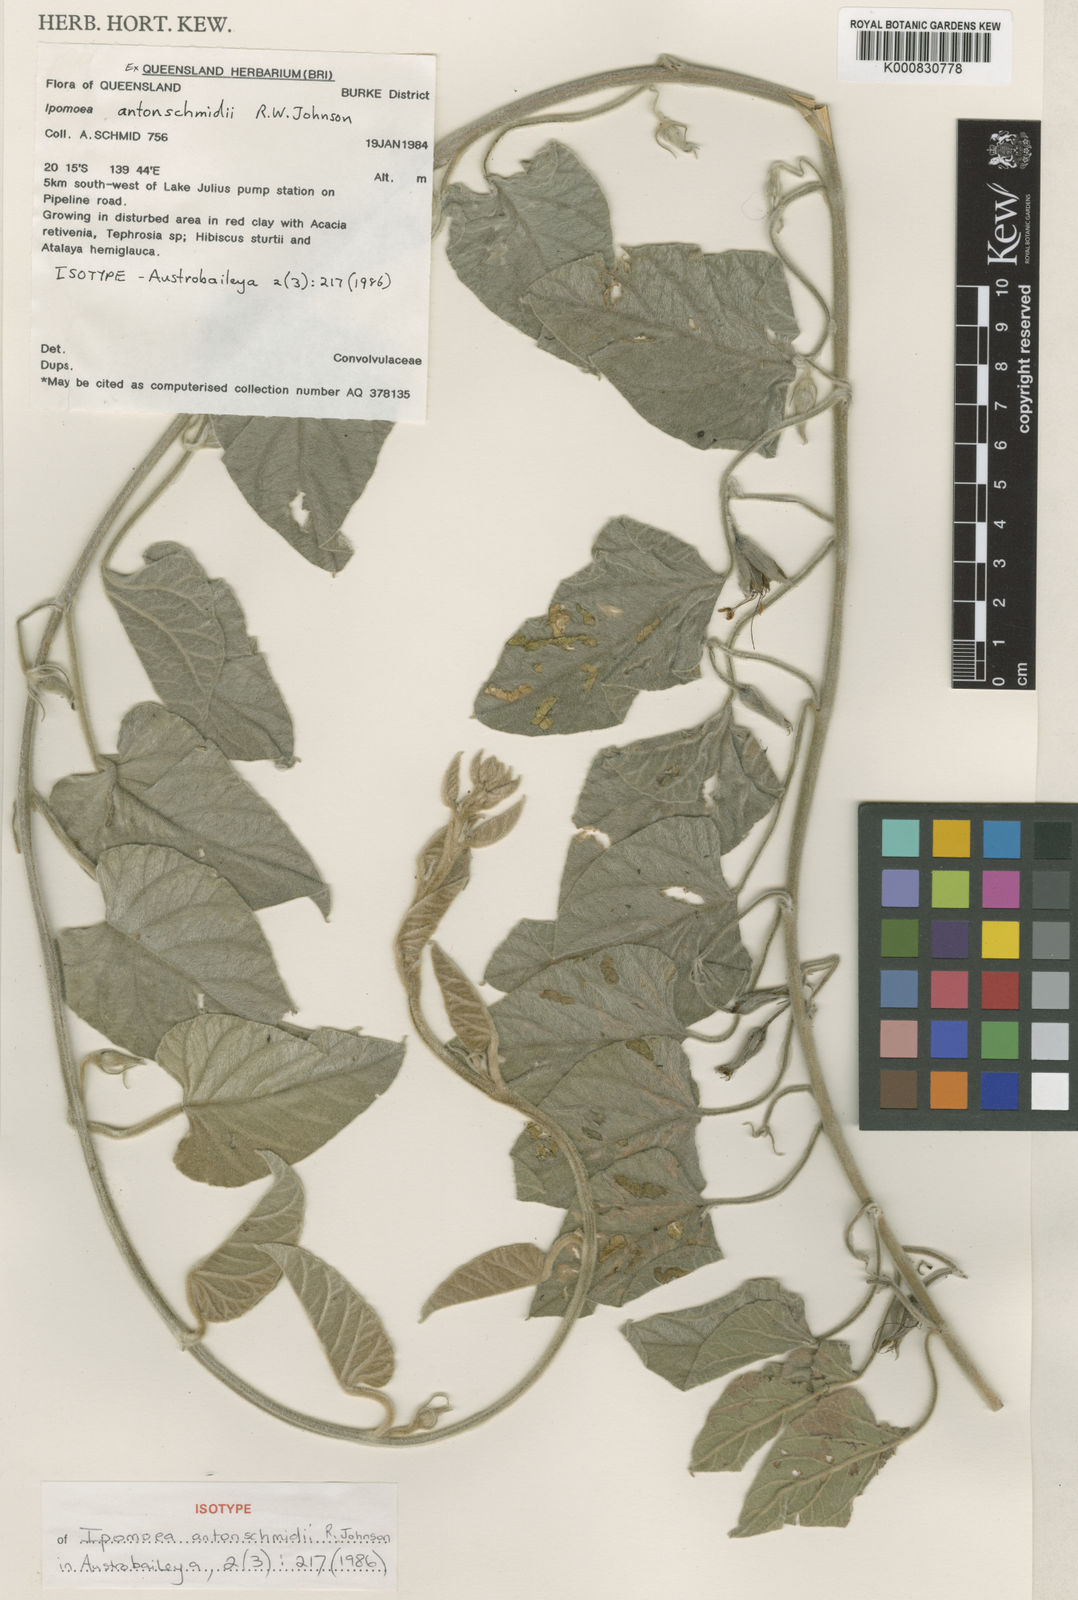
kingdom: Plantae
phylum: Tracheophyta
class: Magnoliopsida
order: Solanales
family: Convolvulaceae
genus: Ipomoea
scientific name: Ipomoea antonschmidii
